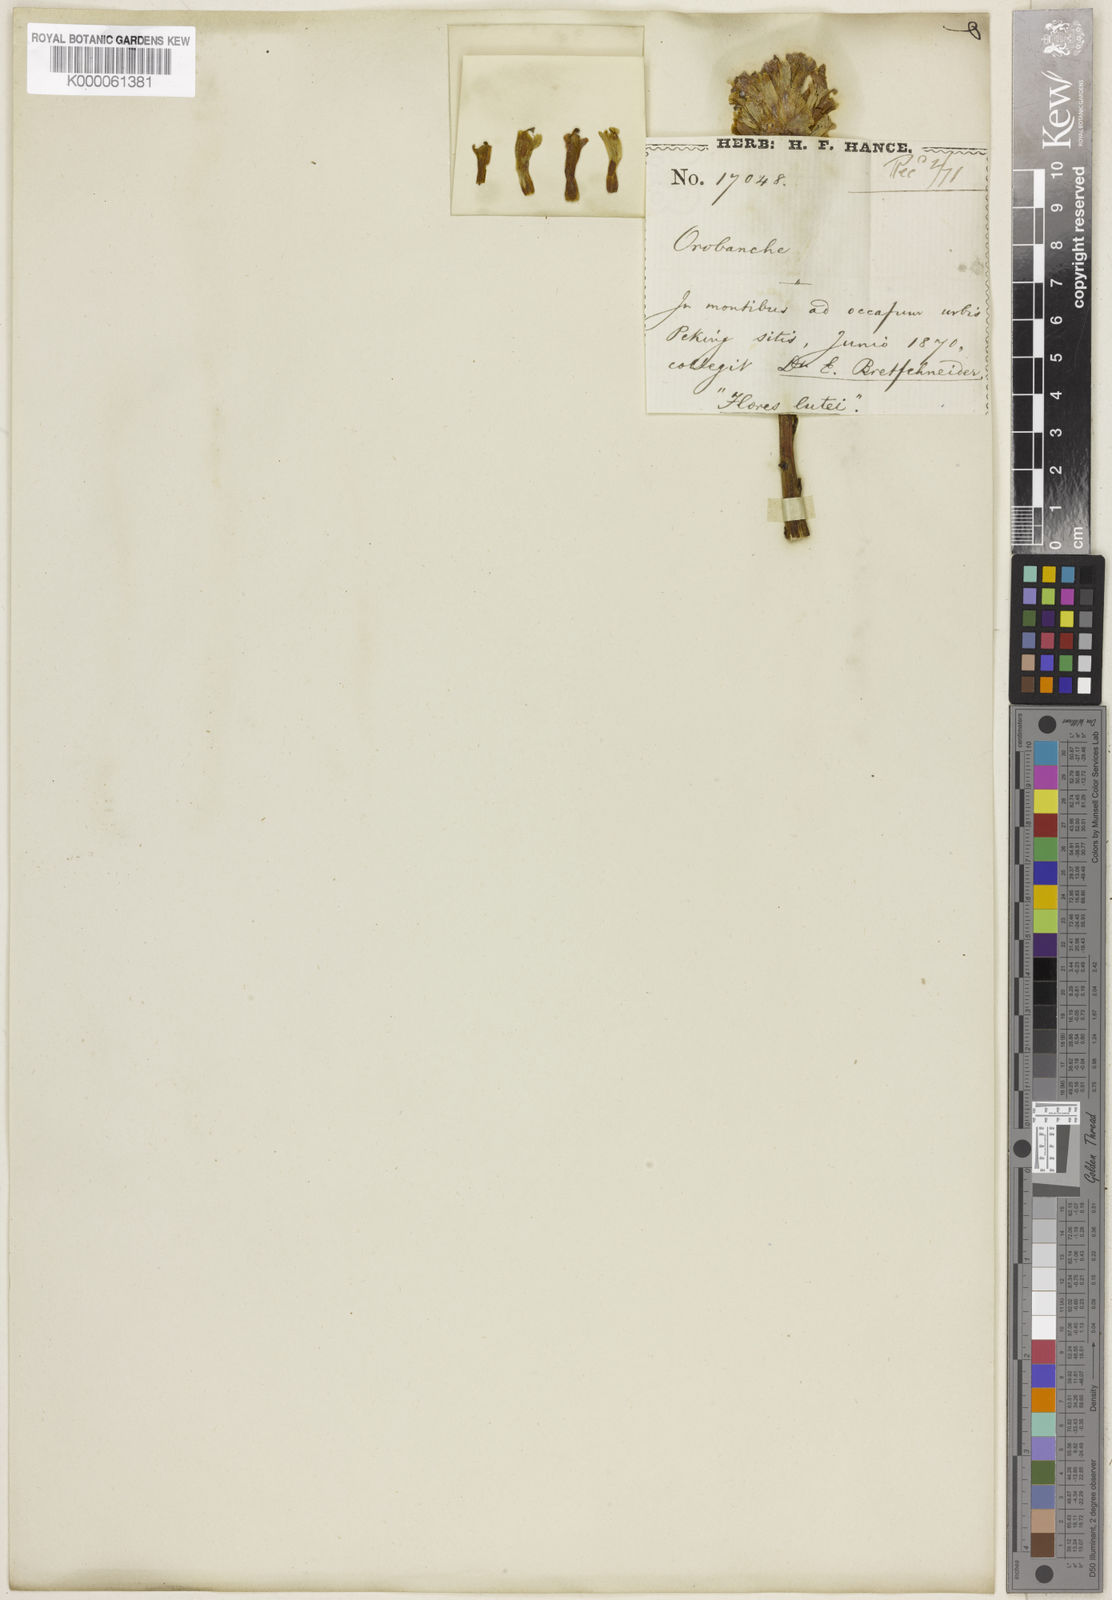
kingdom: Plantae
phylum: Tracheophyta
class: Magnoliopsida
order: Lamiales
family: Orobanchaceae
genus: Orobanche
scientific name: Orobanche pycnostachya
